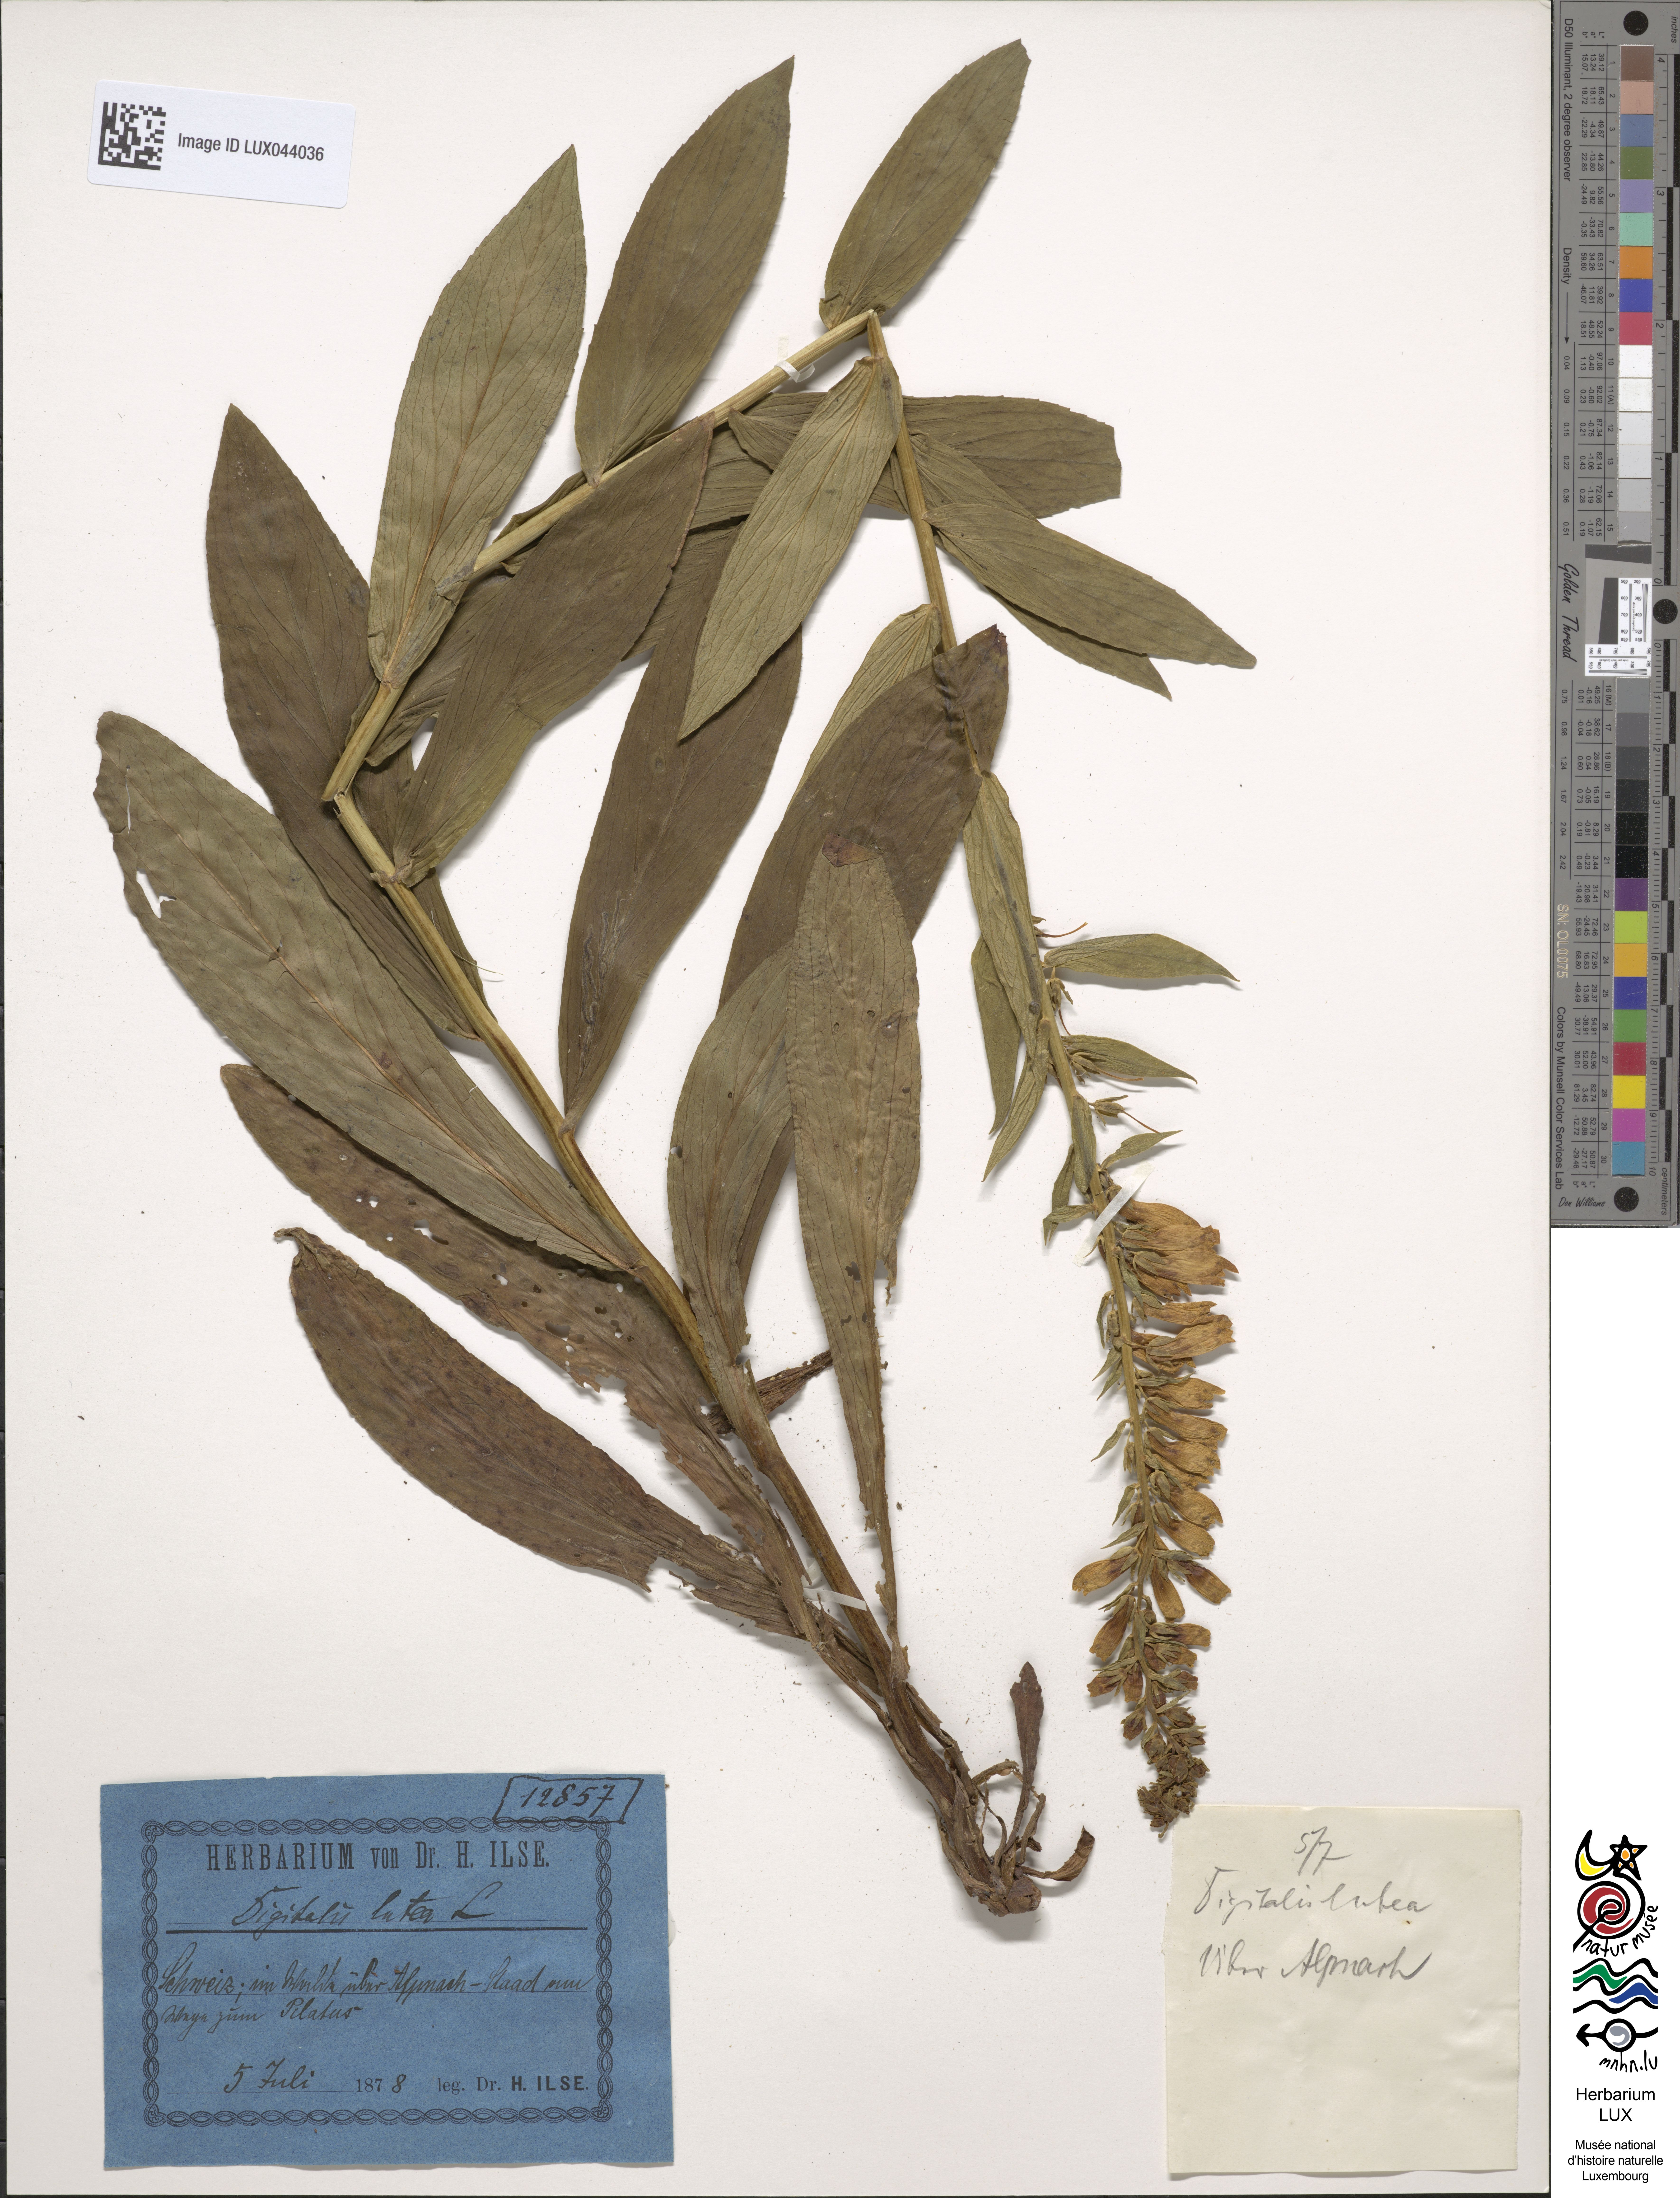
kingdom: Plantae
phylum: Tracheophyta
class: Magnoliopsida
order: Lamiales
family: Plantaginaceae
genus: Digitalis
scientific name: Digitalis lutea
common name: Straw foxglove
